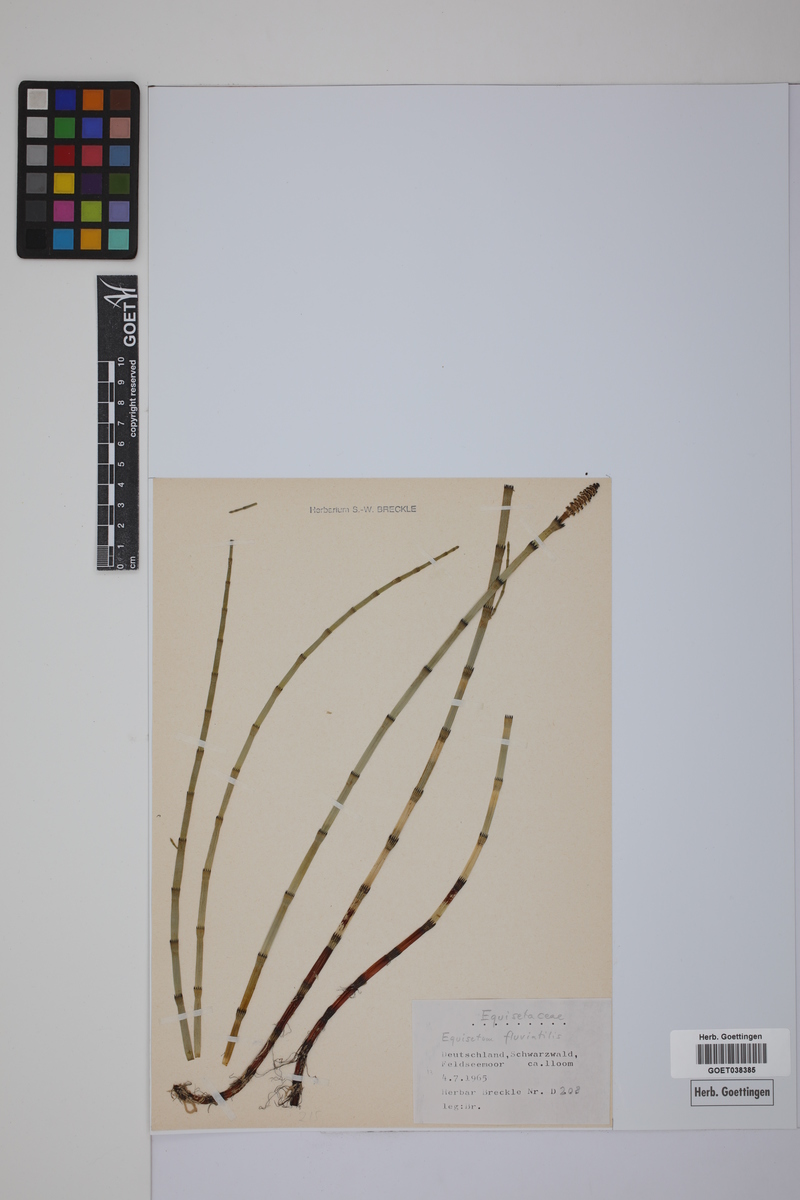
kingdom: Plantae
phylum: Tracheophyta
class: Polypodiopsida
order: Equisetales
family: Equisetaceae
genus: Equisetum
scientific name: Equisetum fluviatile
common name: Water horsetail
